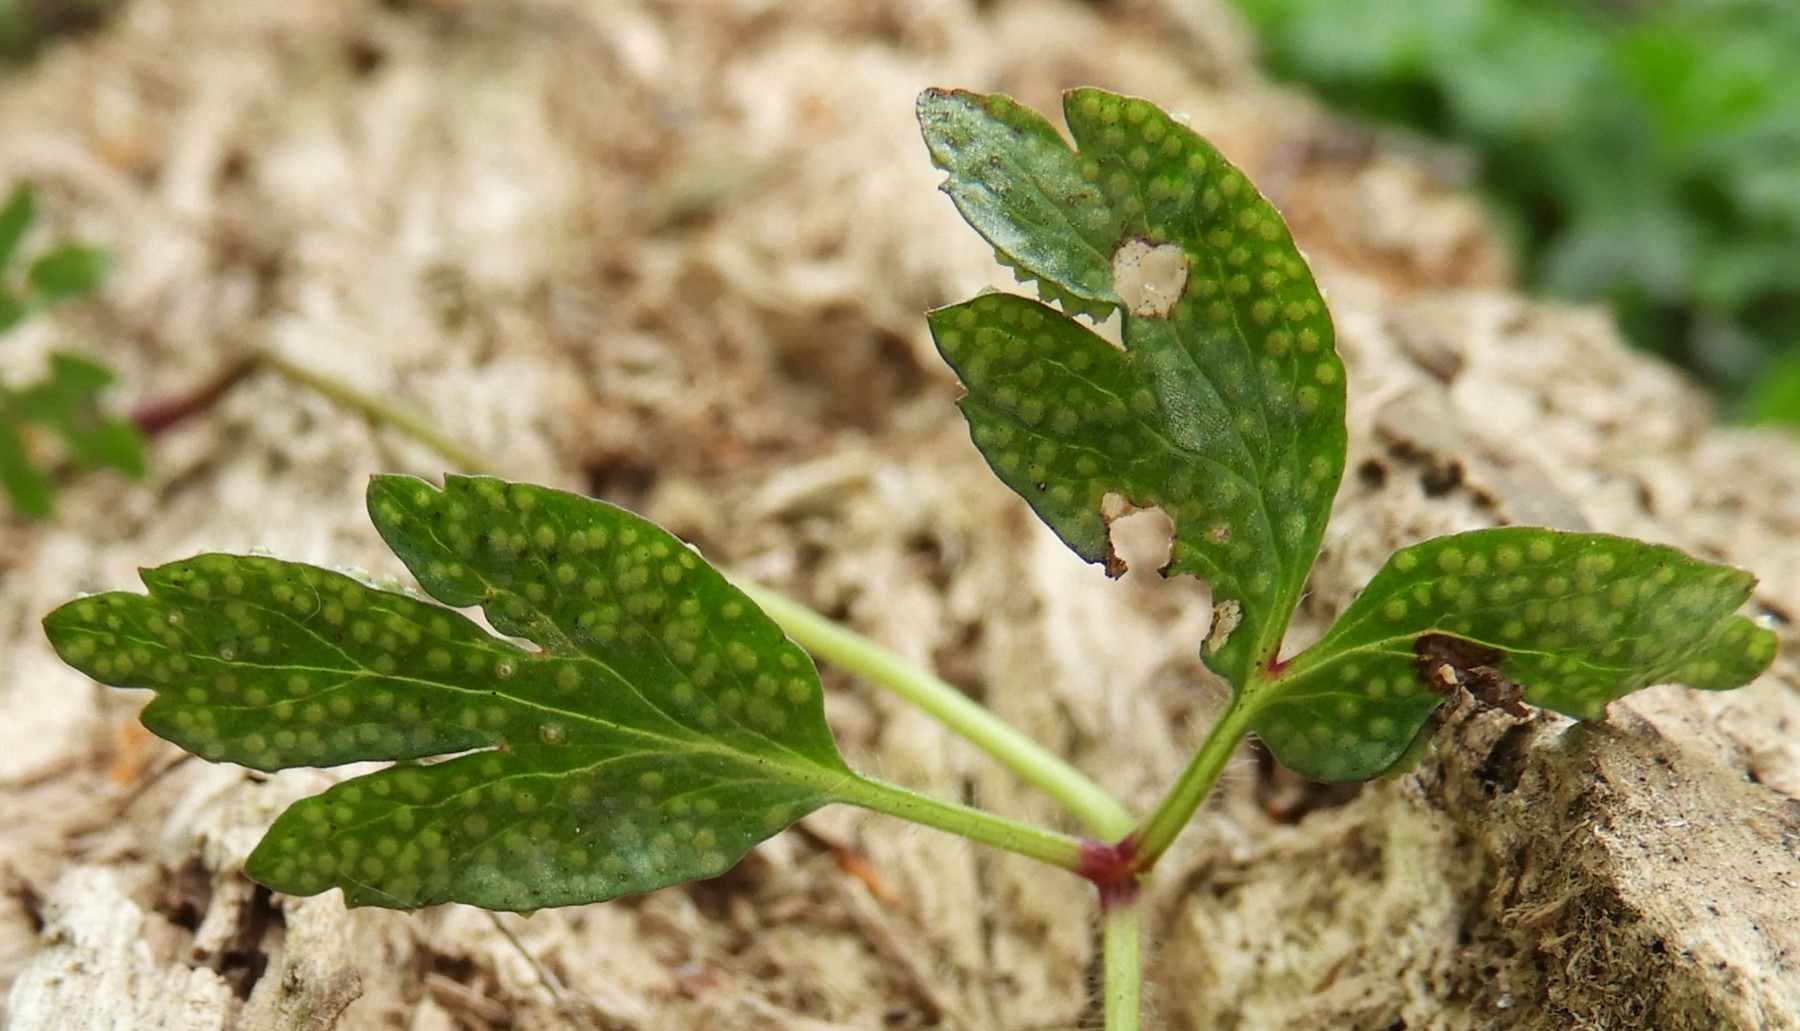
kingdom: Fungi
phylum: Basidiomycota
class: Pucciniomycetes
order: Pucciniales
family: Ochropsoraceae
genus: Ochropsora
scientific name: Ochropsora ariae
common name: anemone-okkerpletrust
